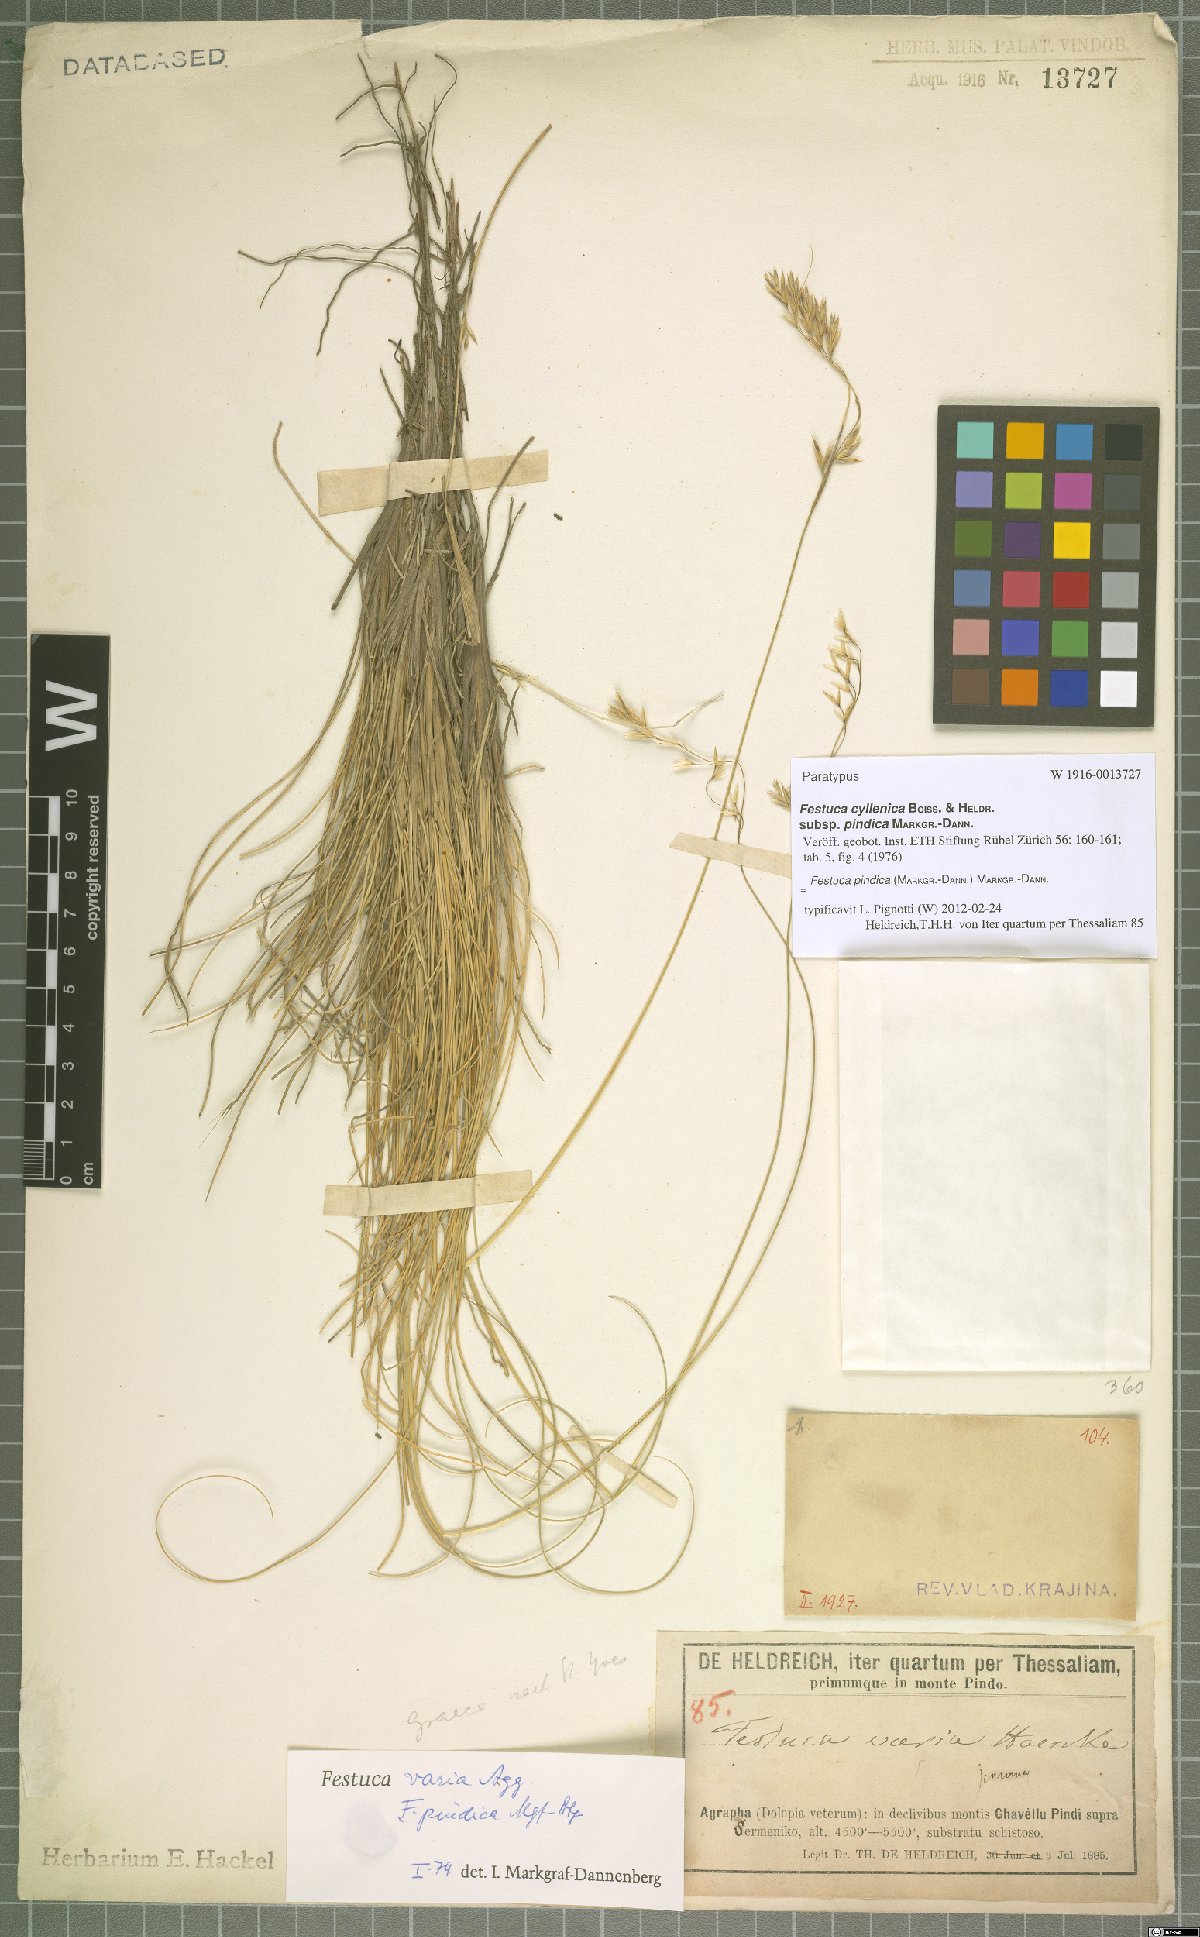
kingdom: Plantae
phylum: Tracheophyta
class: Liliopsida
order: Poales
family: Poaceae
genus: Festuca
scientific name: Festuca pindica
